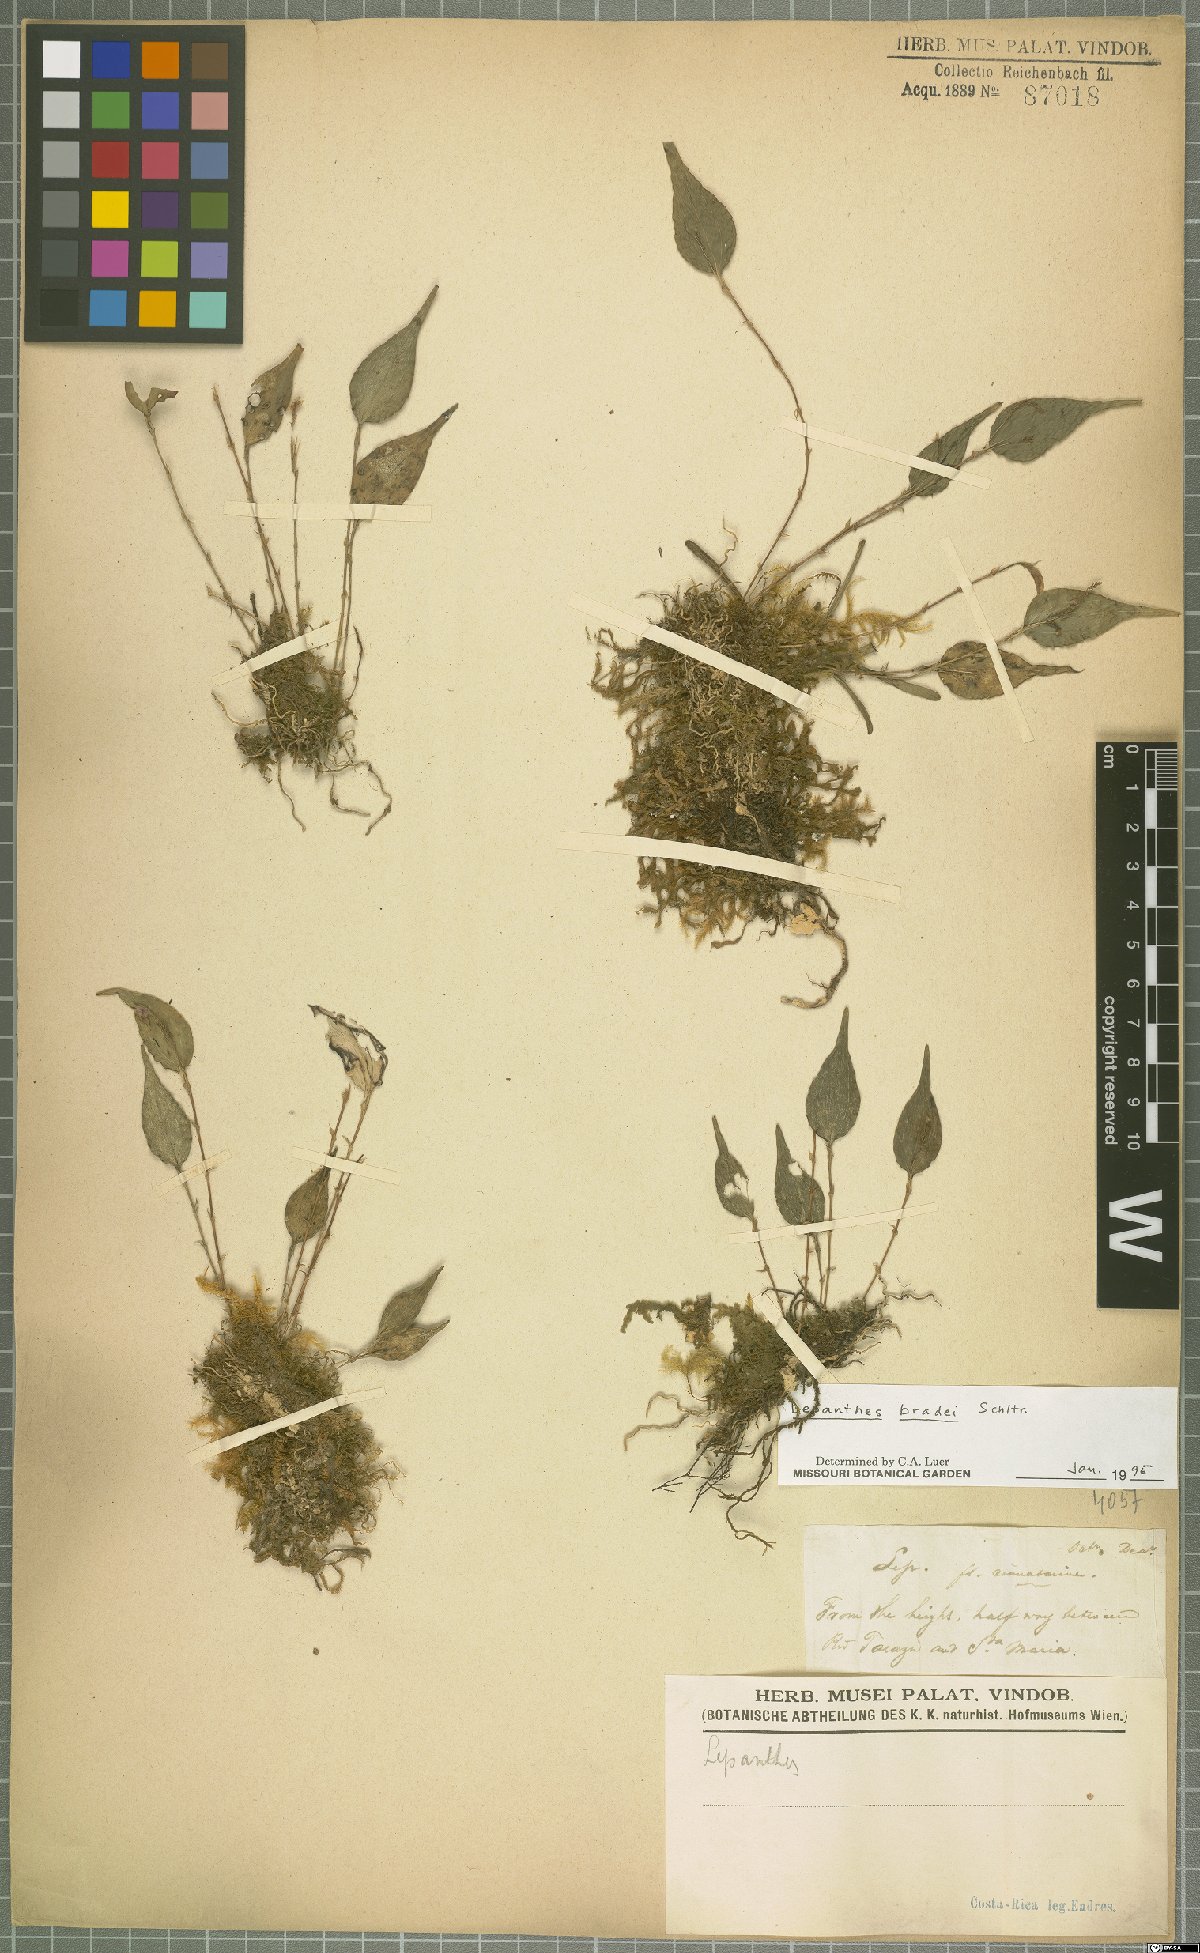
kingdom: Plantae
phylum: Tracheophyta
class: Liliopsida
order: Asparagales
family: Orchidaceae
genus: Lepanthes
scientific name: Lepanthes bradei
